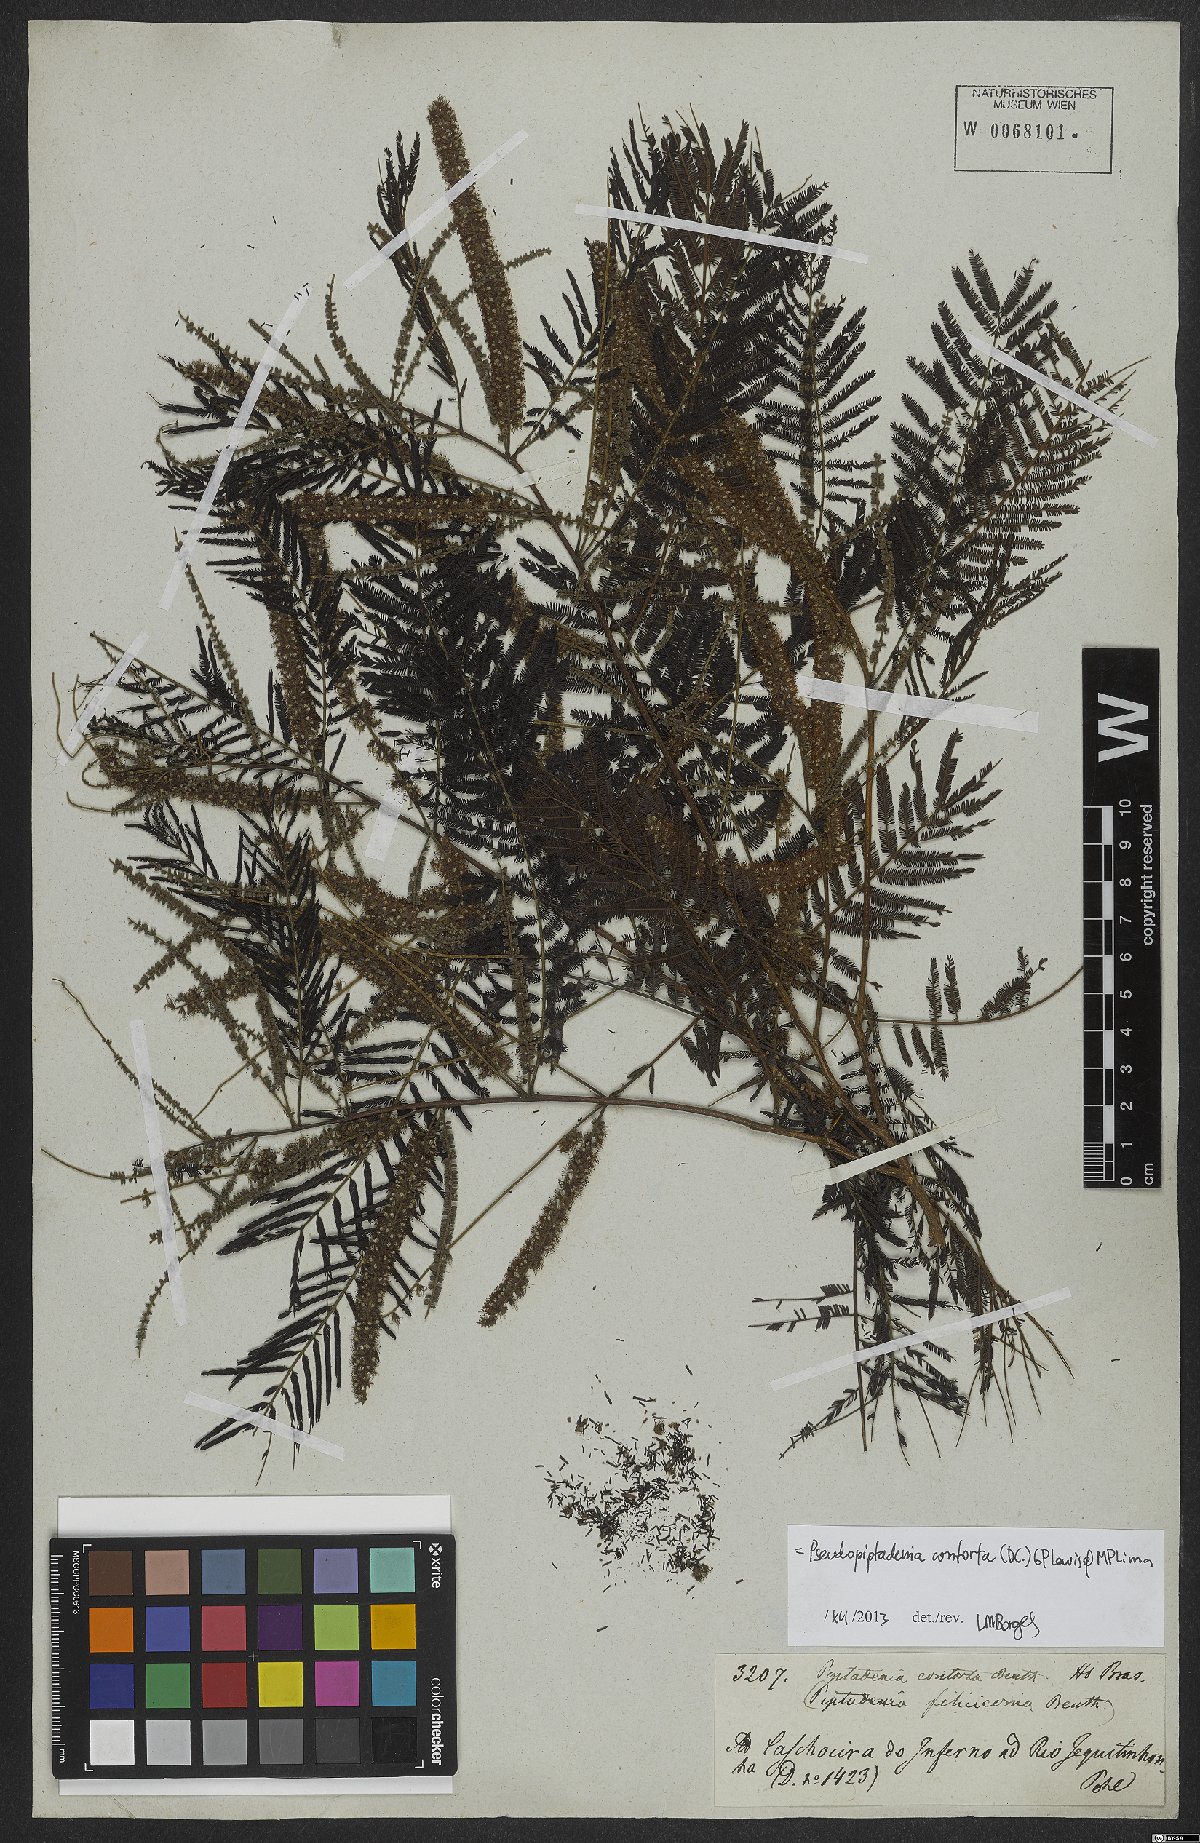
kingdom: Plantae
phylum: Tracheophyta
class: Magnoliopsida
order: Fabales
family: Fabaceae
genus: Pseudopiptadenia
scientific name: Pseudopiptadenia contorta
